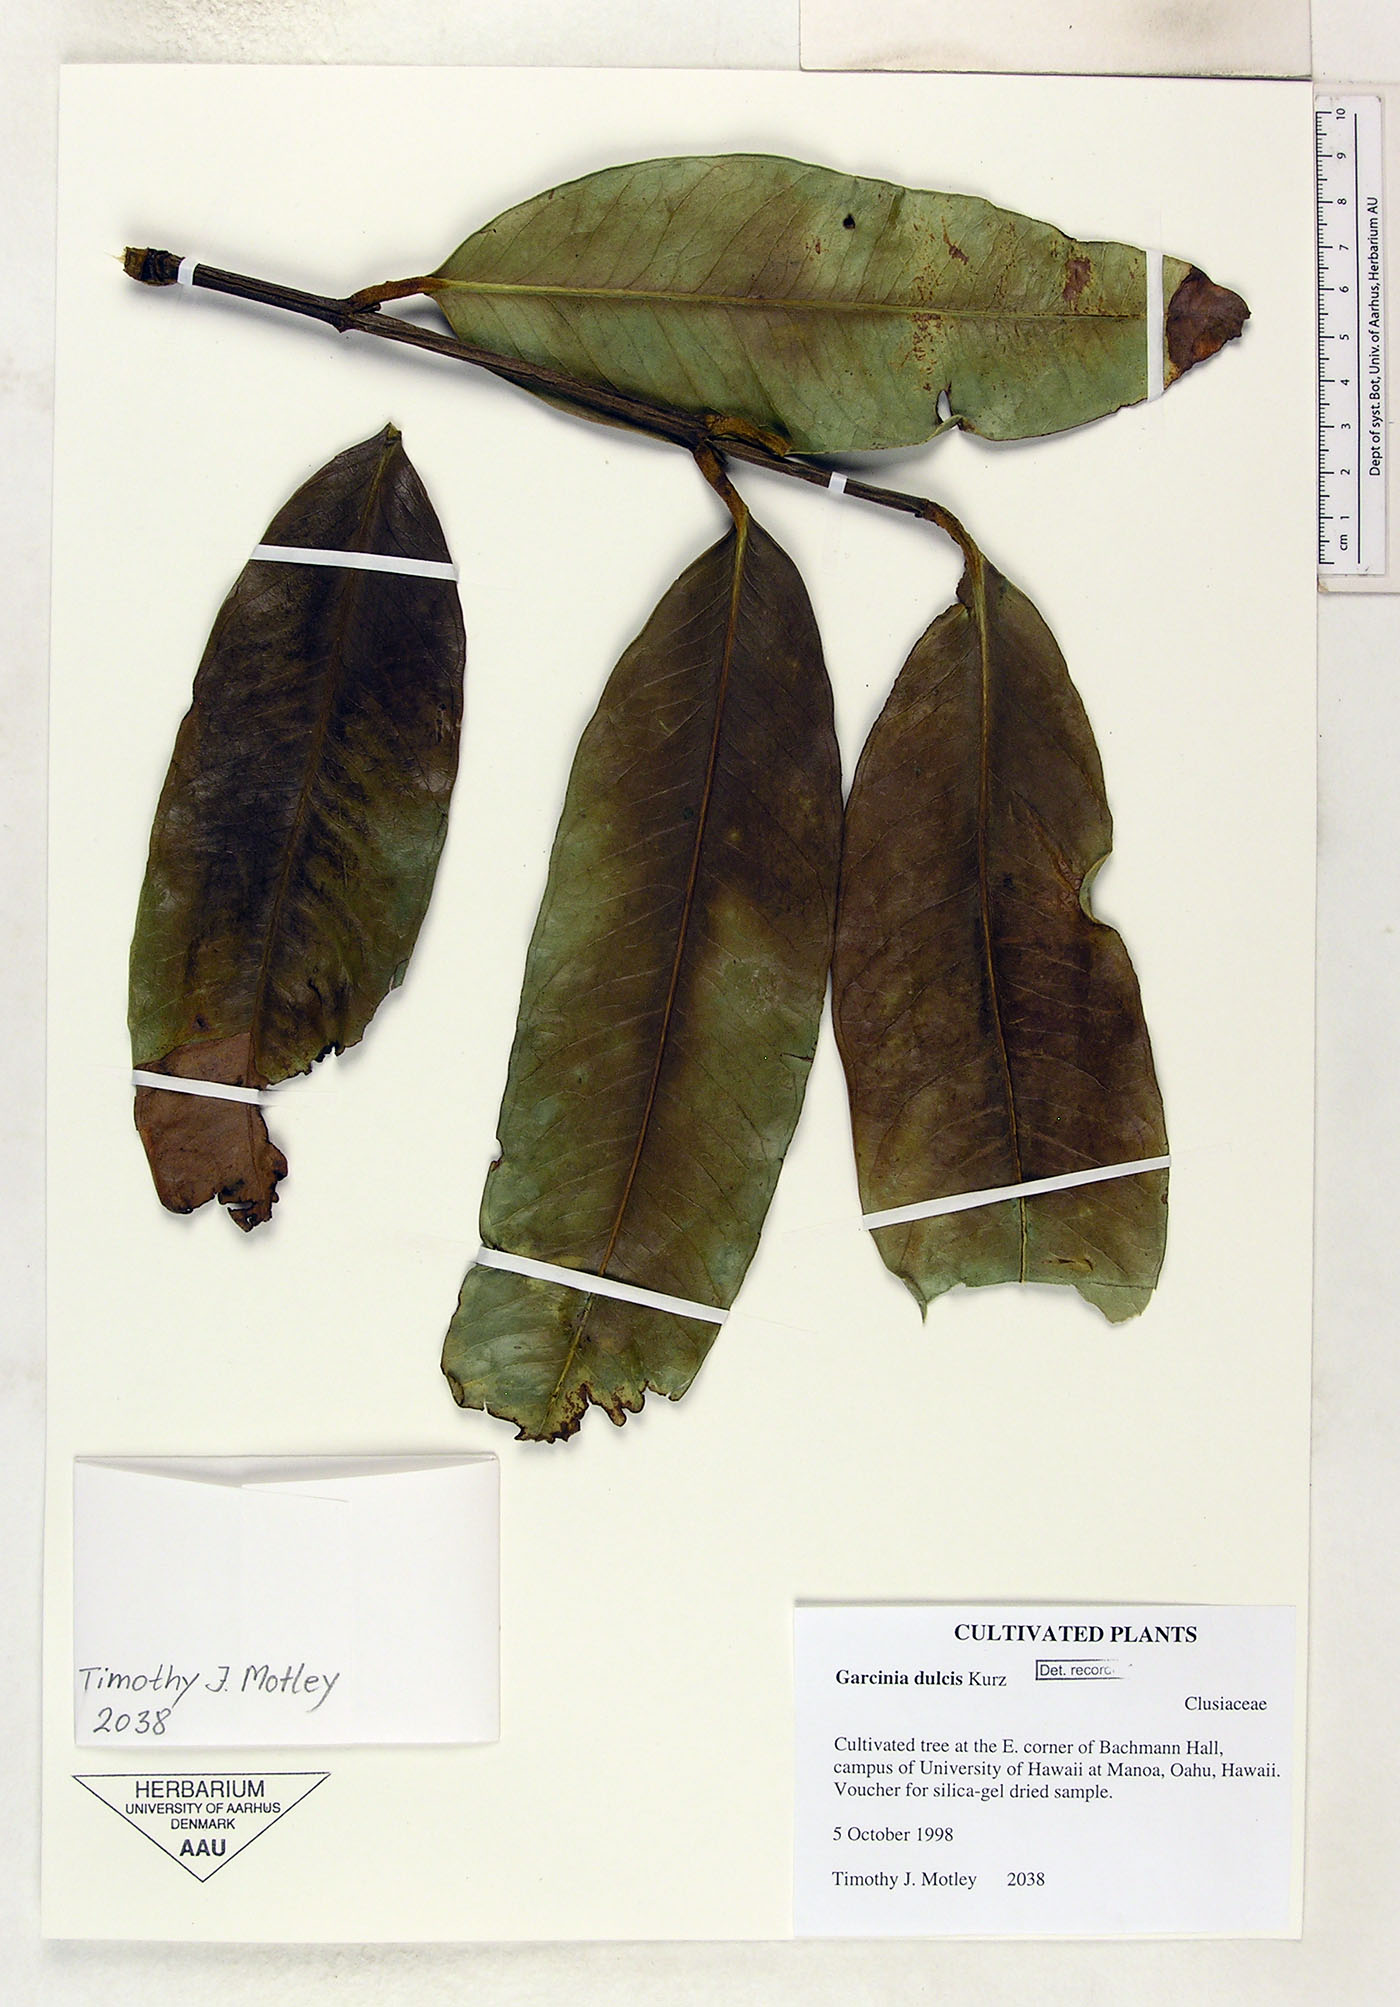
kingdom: Plantae
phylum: Tracheophyta
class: Magnoliopsida
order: Malpighiales
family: Clusiaceae
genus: Garcinia
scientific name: Garcinia dulcis
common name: Eggtree
